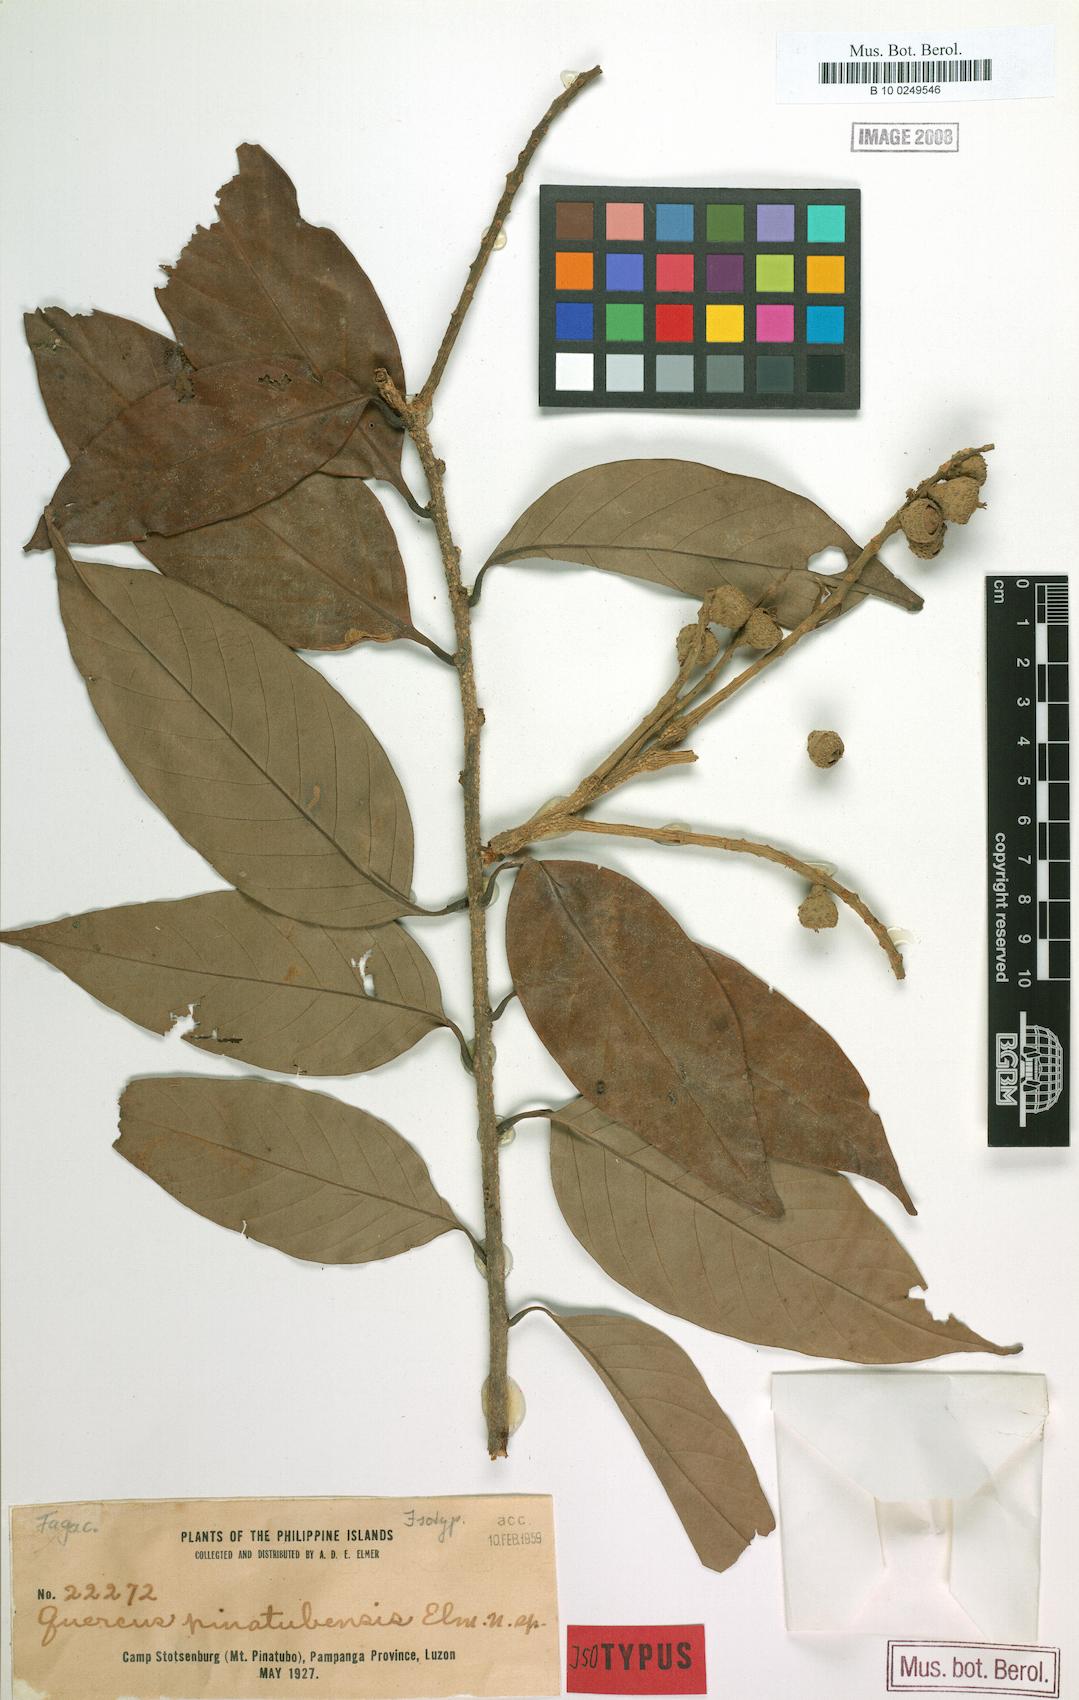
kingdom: Plantae
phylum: Tracheophyta
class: Magnoliopsida
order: Fagales
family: Fagaceae
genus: Lithocarpus
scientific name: Lithocarpus castellarnauianus
